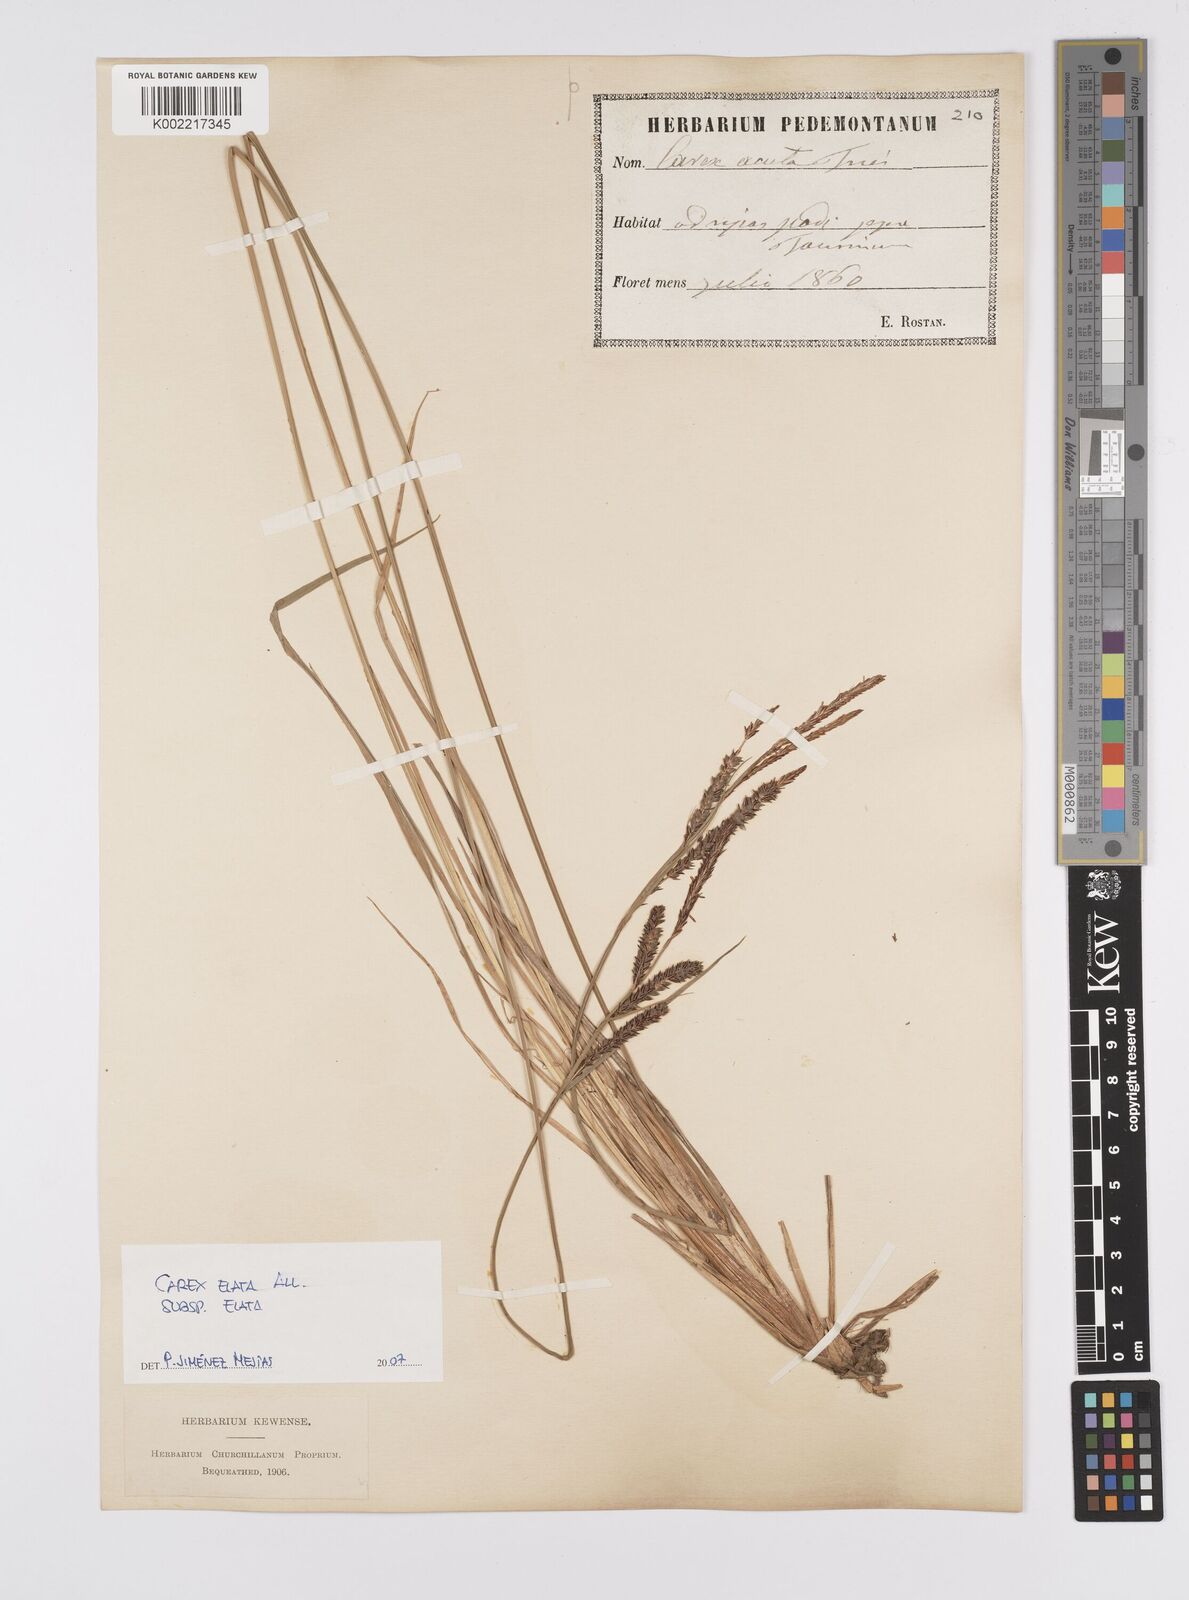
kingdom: Plantae
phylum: Tracheophyta
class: Liliopsida
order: Poales
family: Cyperaceae
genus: Carex
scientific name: Carex elata
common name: Tufted sedge
